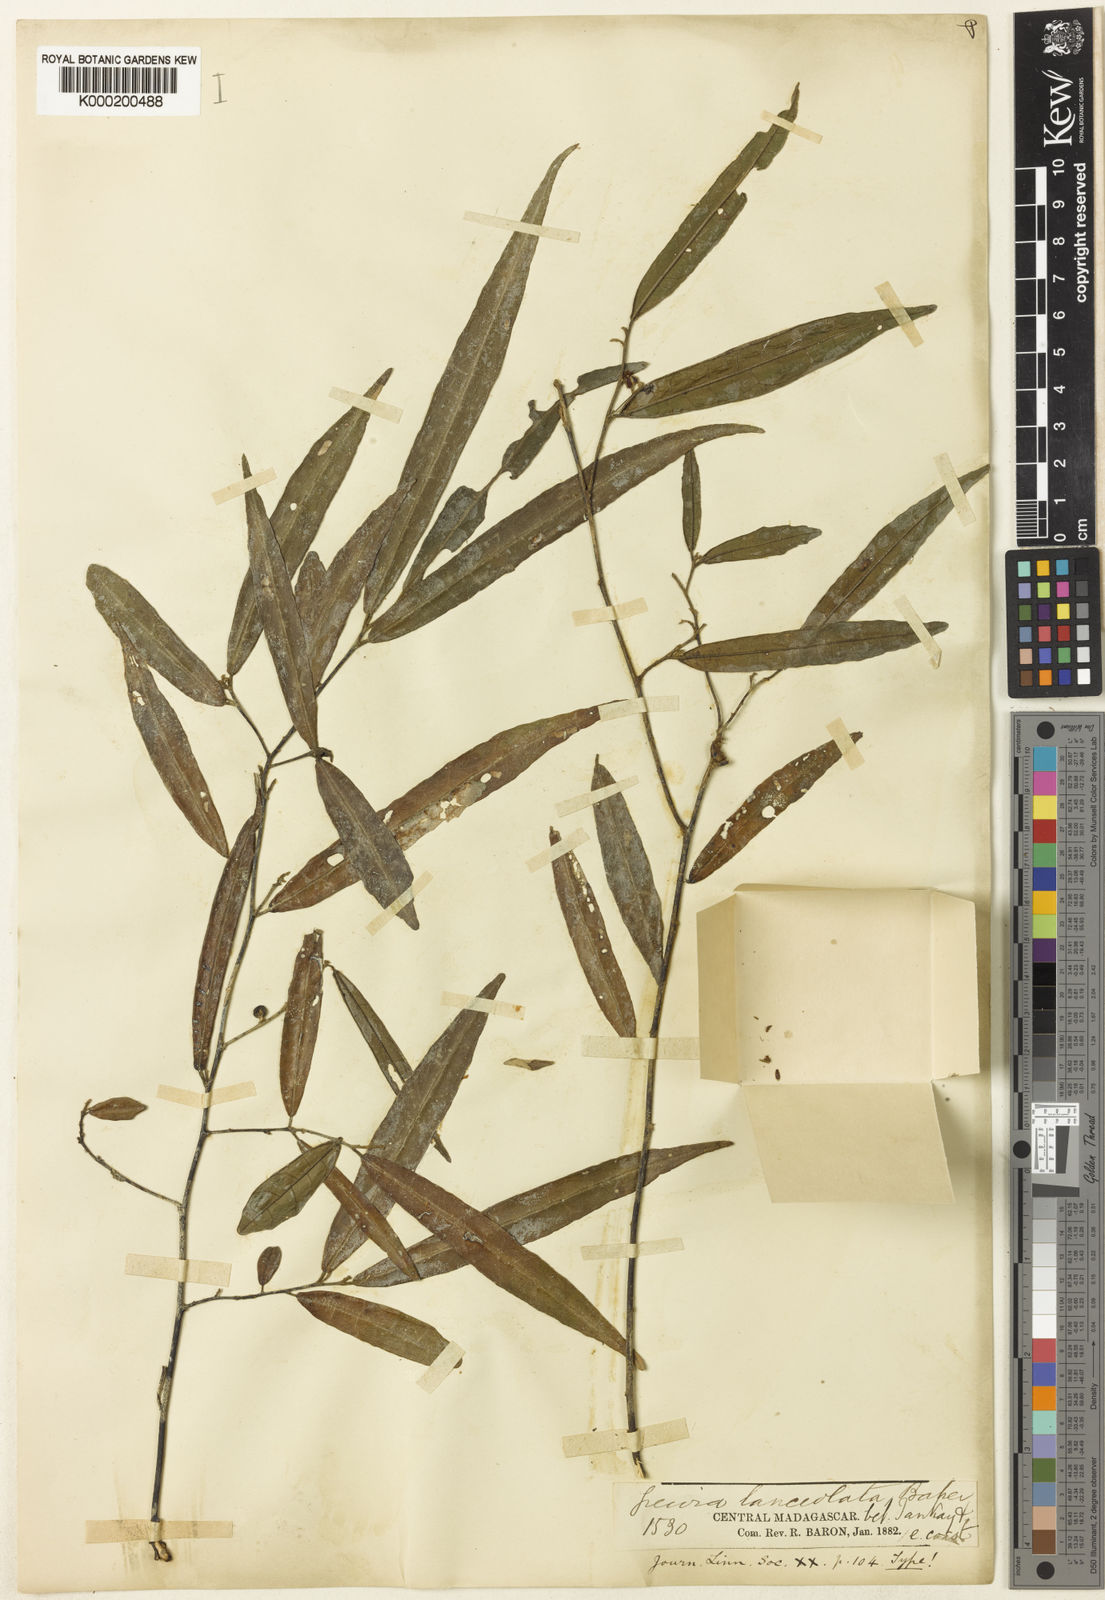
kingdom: Plantae
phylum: Tracheophyta
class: Magnoliopsida
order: Malvales
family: Malvaceae
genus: Grewia
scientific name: Grewia capuronii
